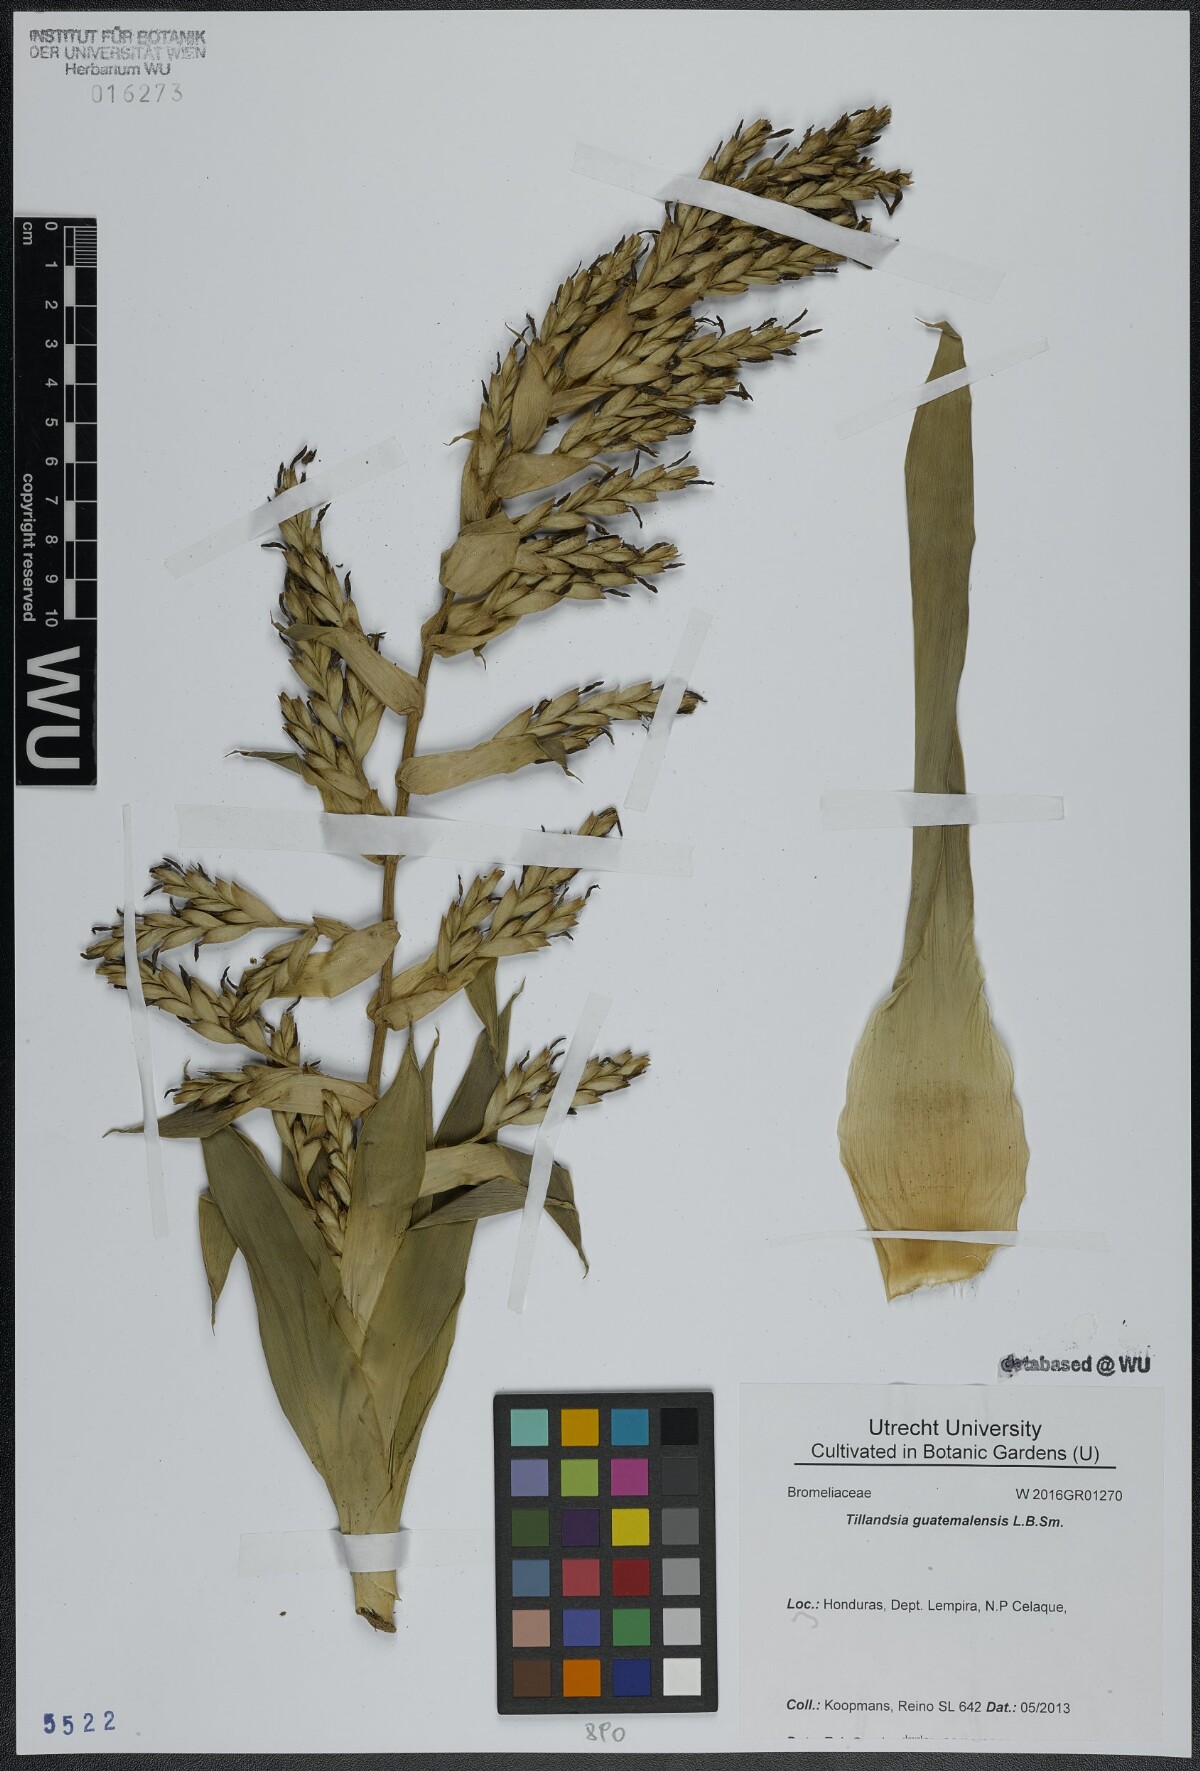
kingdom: Plantae
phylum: Tracheophyta
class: Liliopsida
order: Poales
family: Bromeliaceae
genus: Tillandsia
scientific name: Tillandsia guatemalensis
